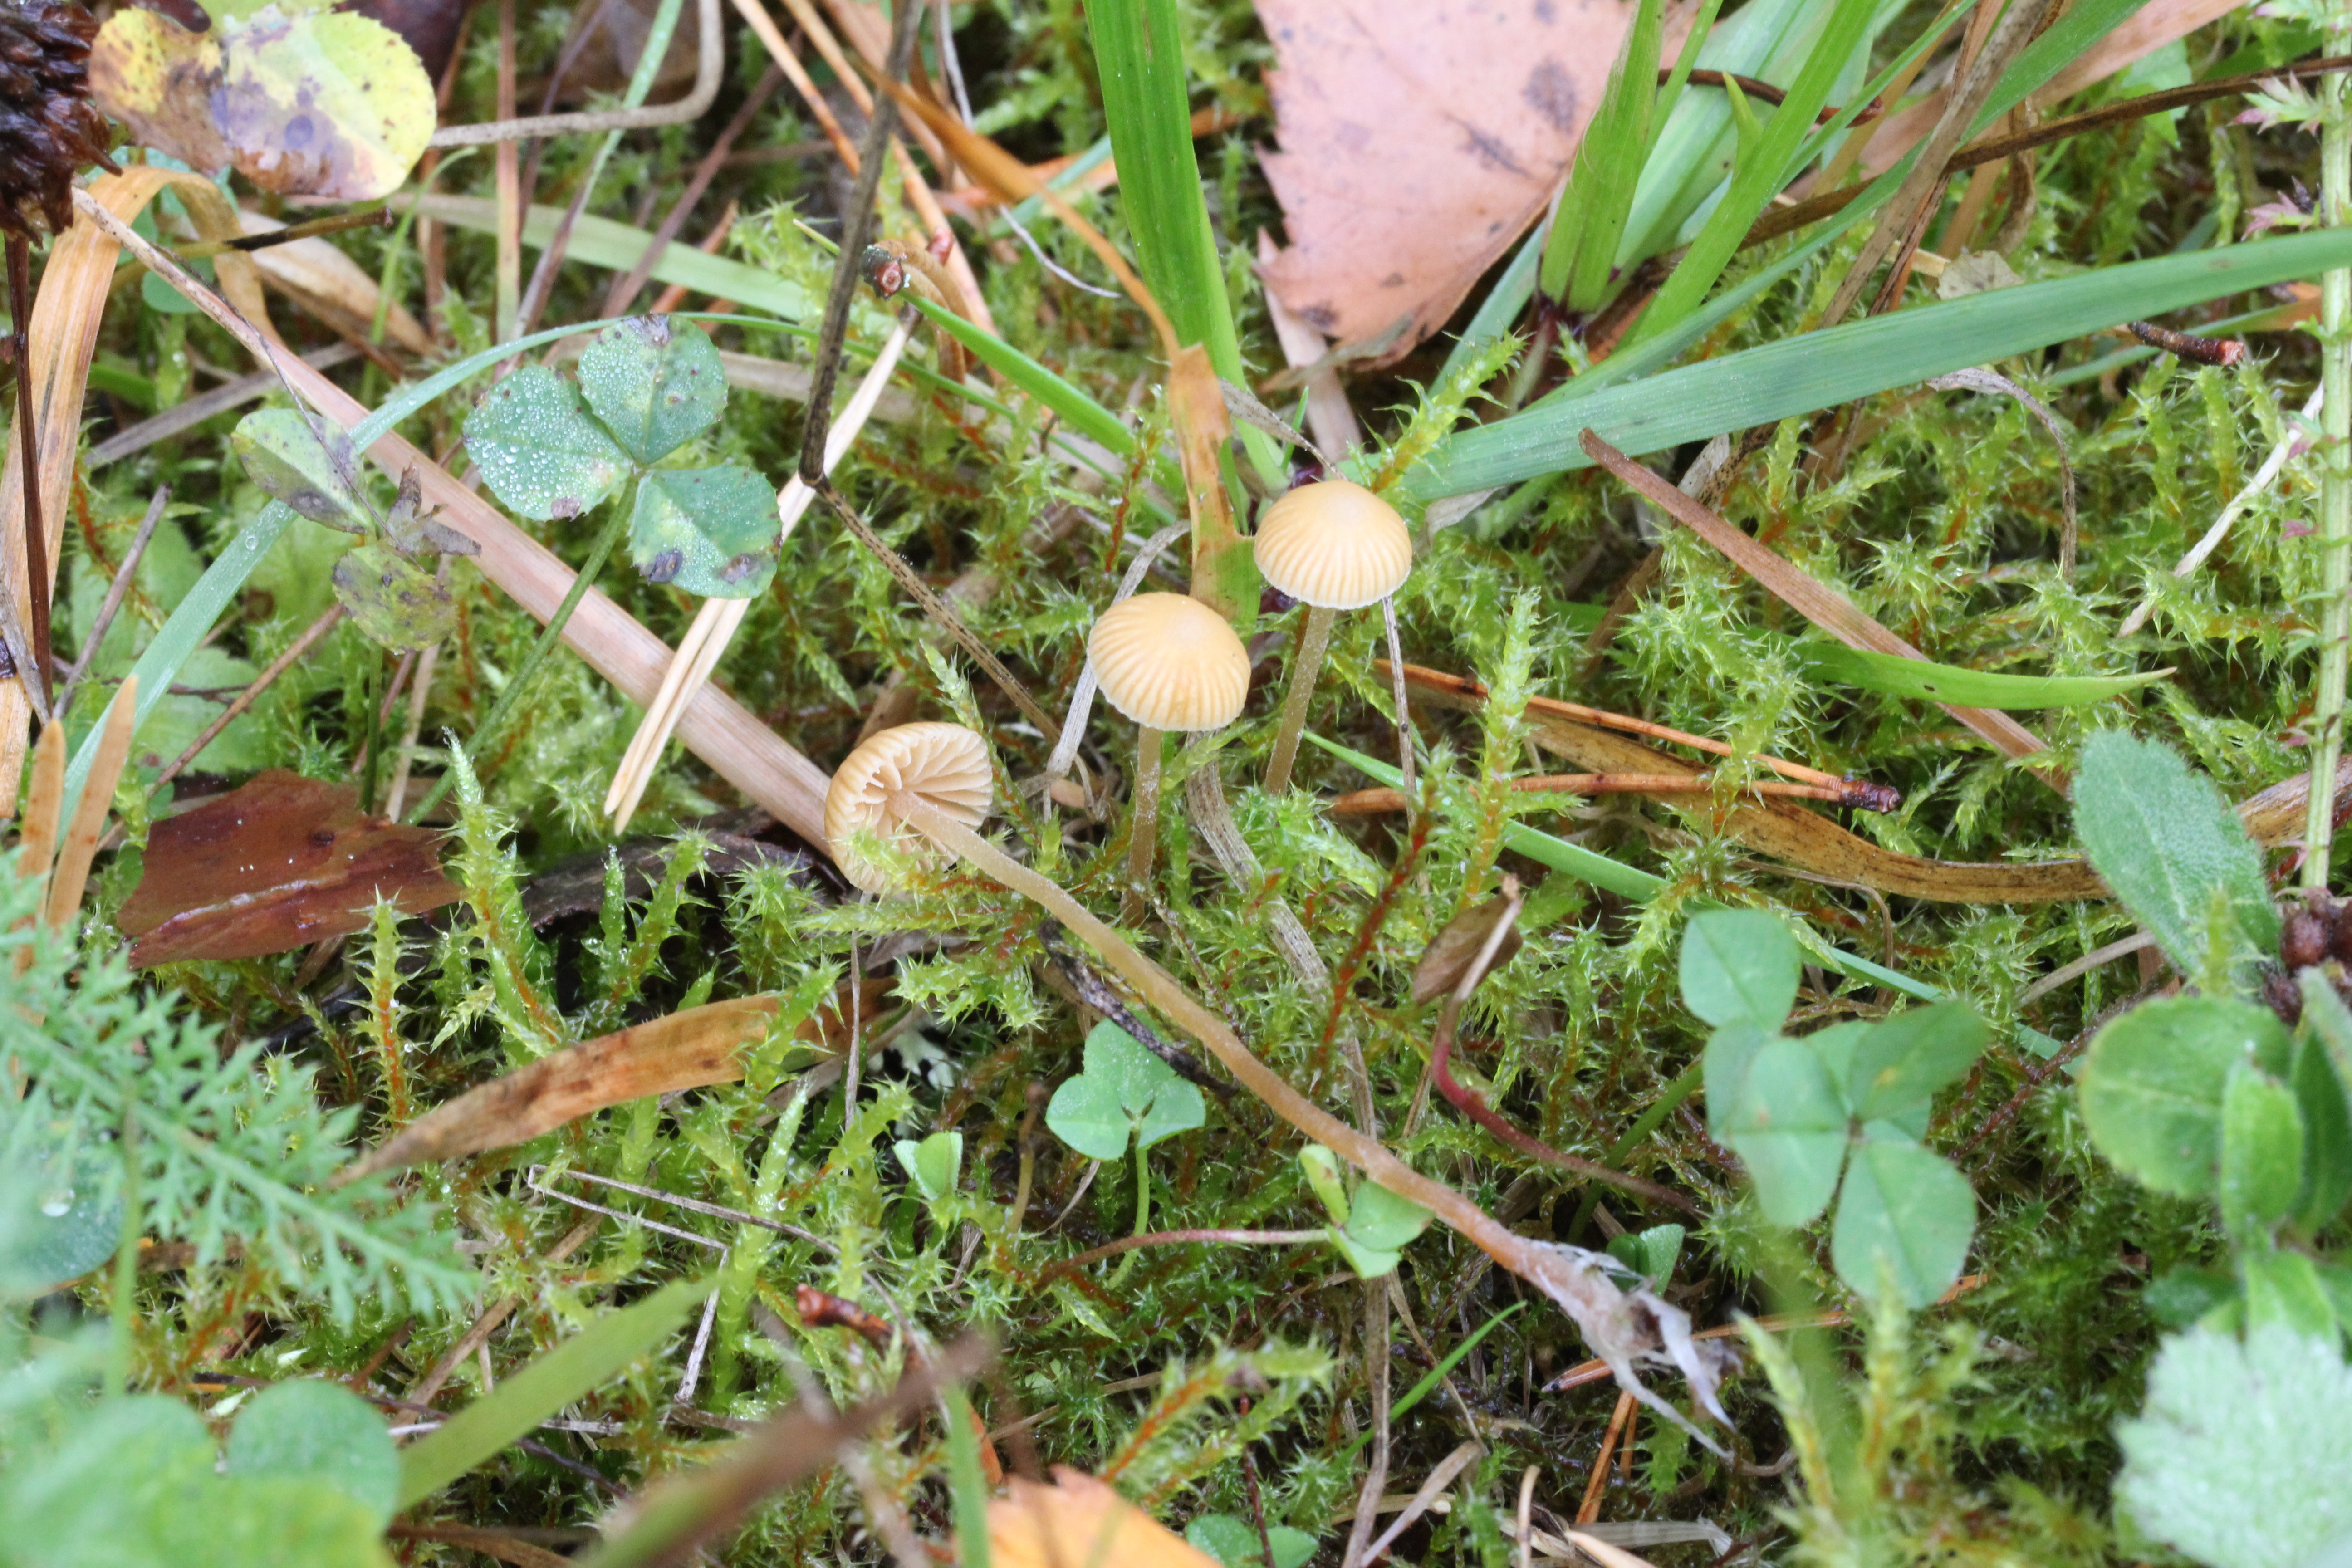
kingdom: Fungi
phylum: Basidiomycota
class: Agaricomycetes
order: Agaricales
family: Hymenogastraceae
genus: Galerina
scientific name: Galerina perplexa
